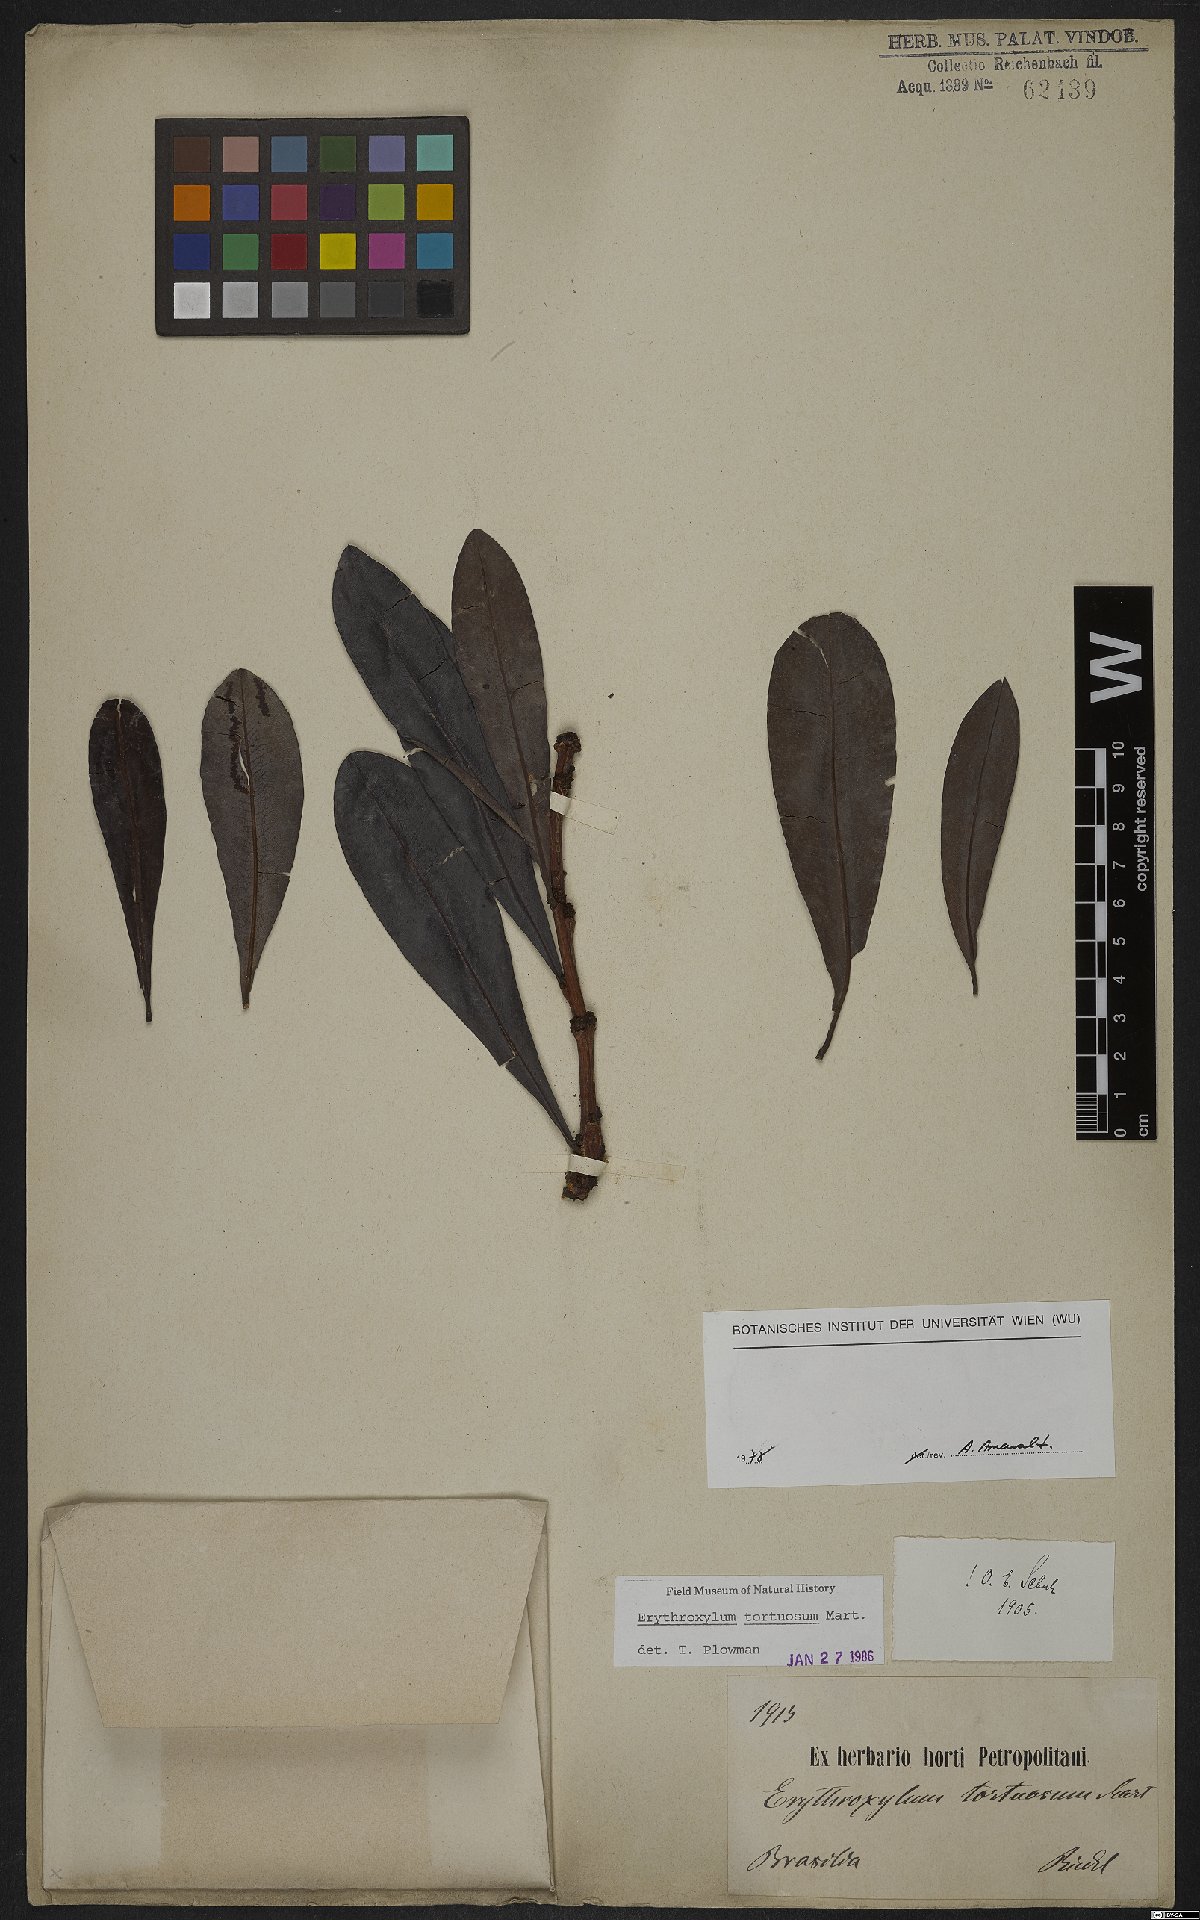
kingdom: Plantae
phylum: Tracheophyta
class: Magnoliopsida
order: Malpighiales
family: Erythroxylaceae
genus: Erythroxylum
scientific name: Erythroxylum tortuosum
